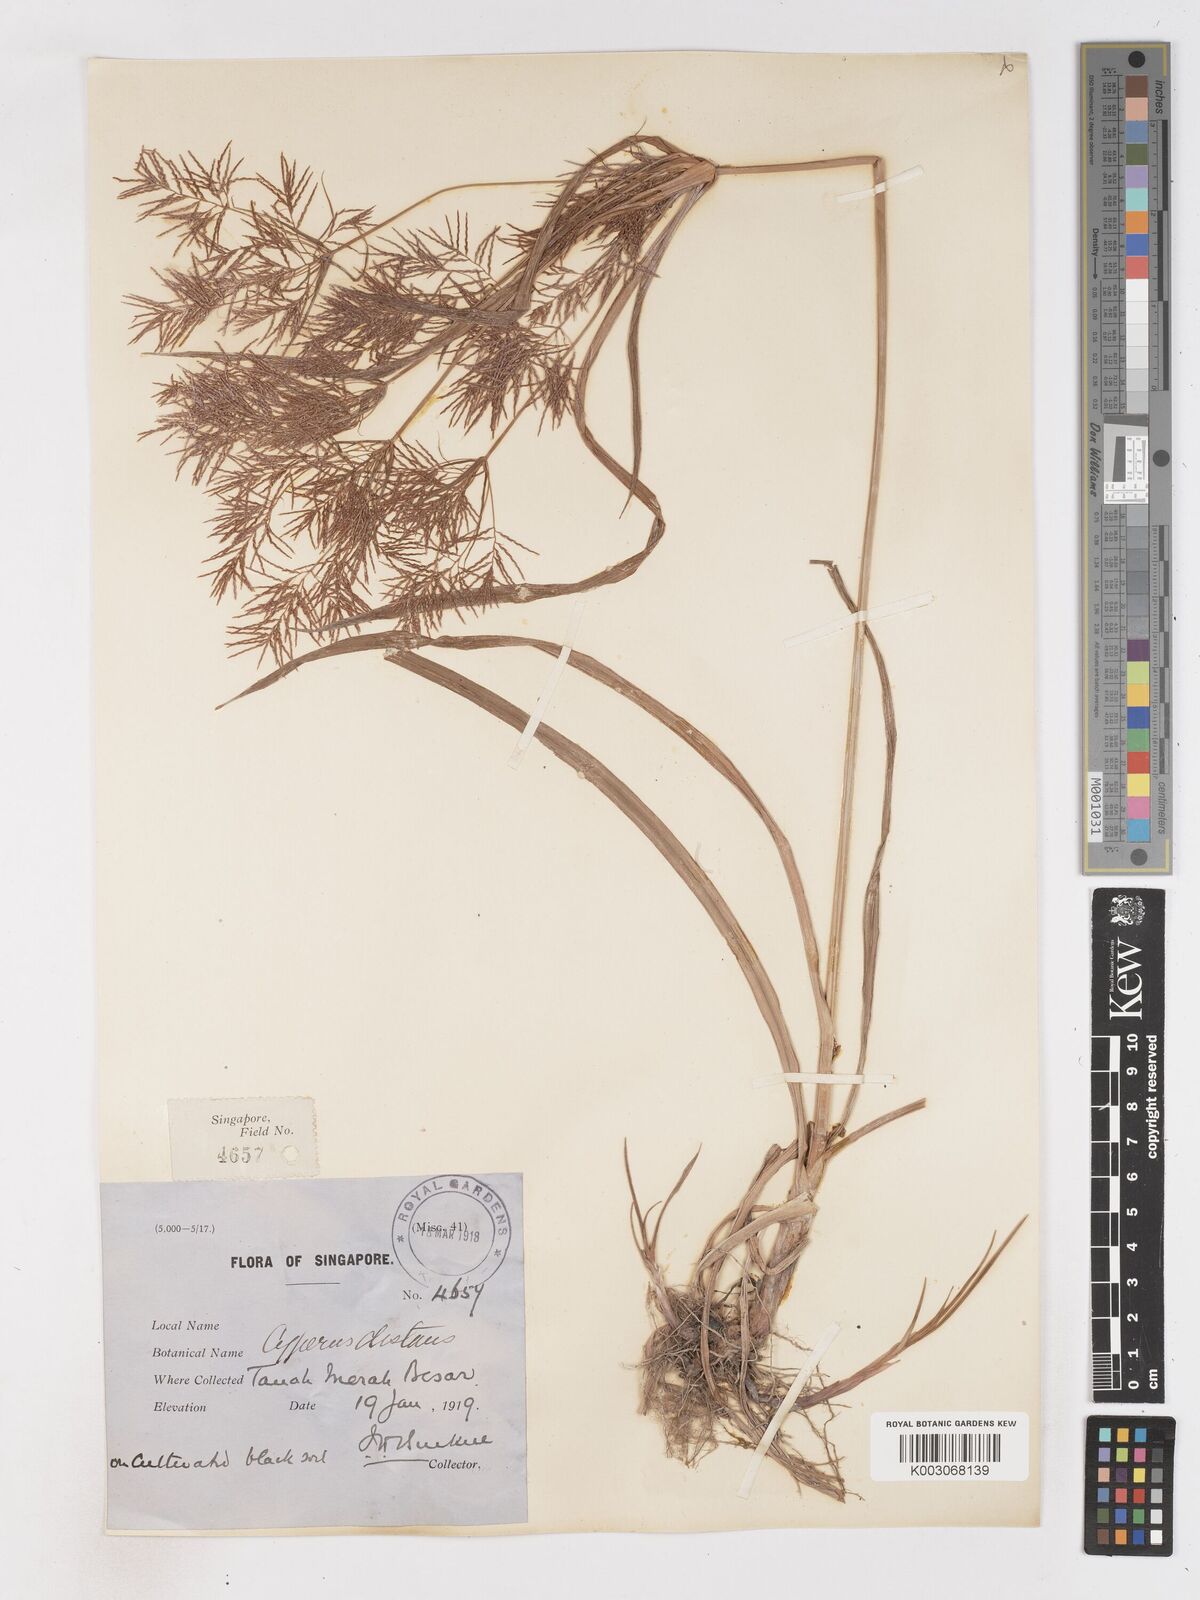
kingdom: Plantae
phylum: Tracheophyta
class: Liliopsida
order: Poales
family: Cyperaceae
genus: Cyperus
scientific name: Cyperus distans
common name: Slender cyperus
